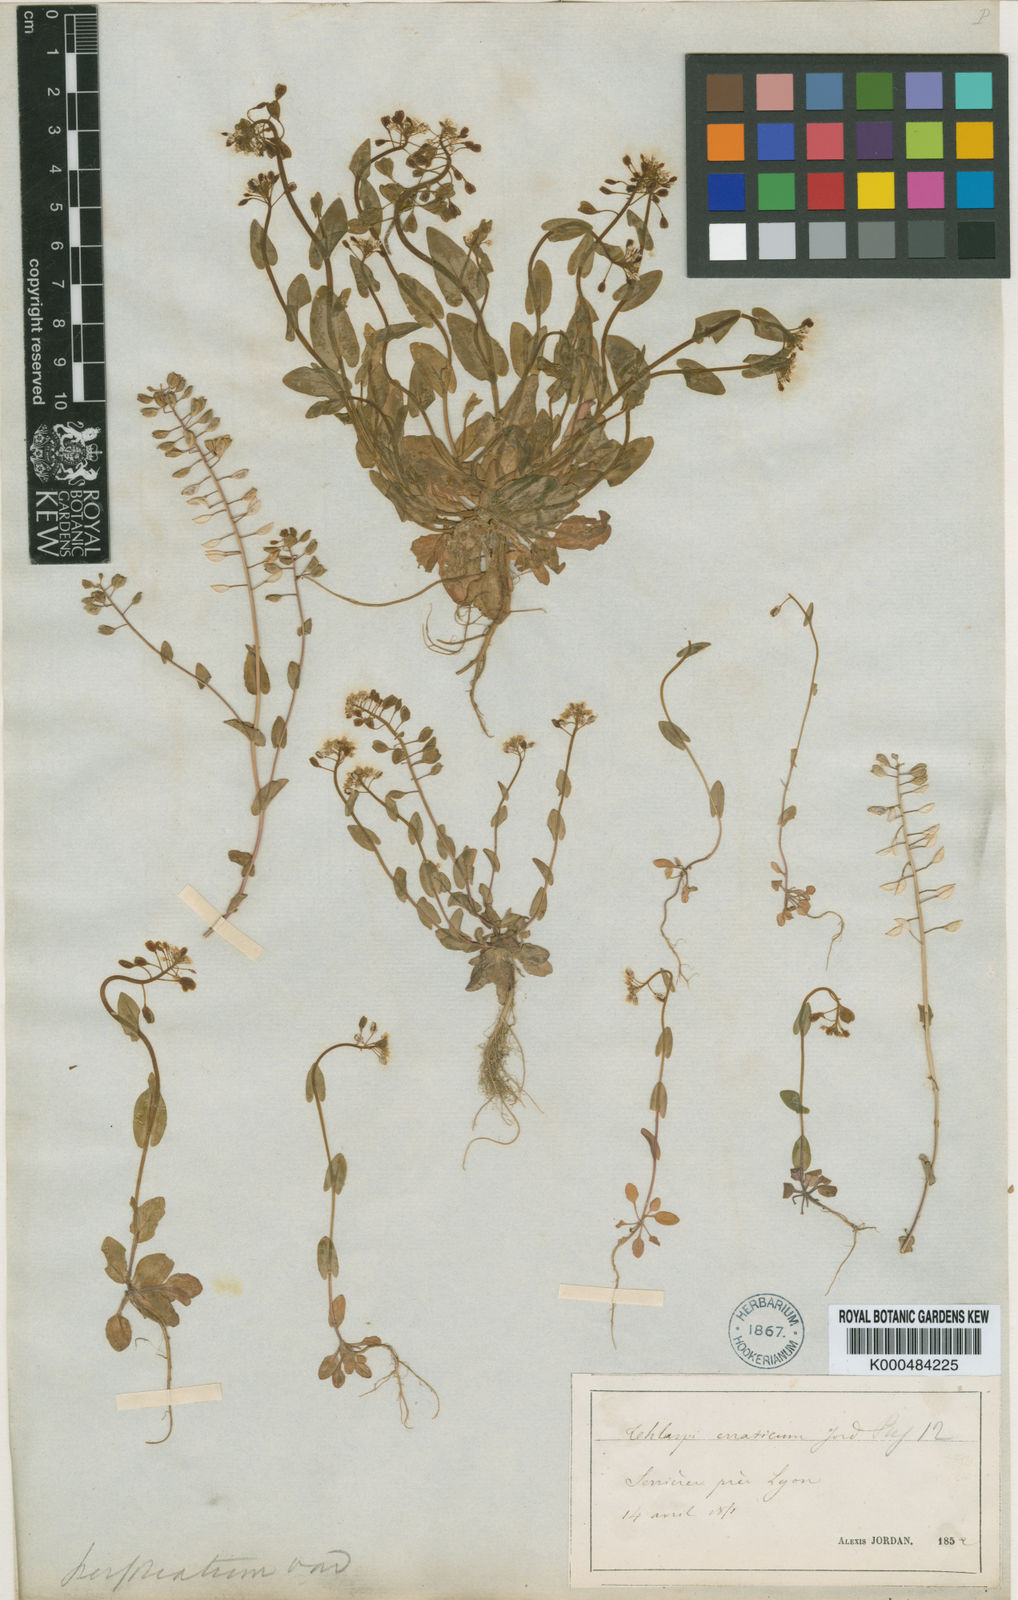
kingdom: Plantae
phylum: Tracheophyta
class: Magnoliopsida
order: Brassicales
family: Brassicaceae
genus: Noccaea
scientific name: Noccaea perfoliata
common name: Perfoliate pennycress
